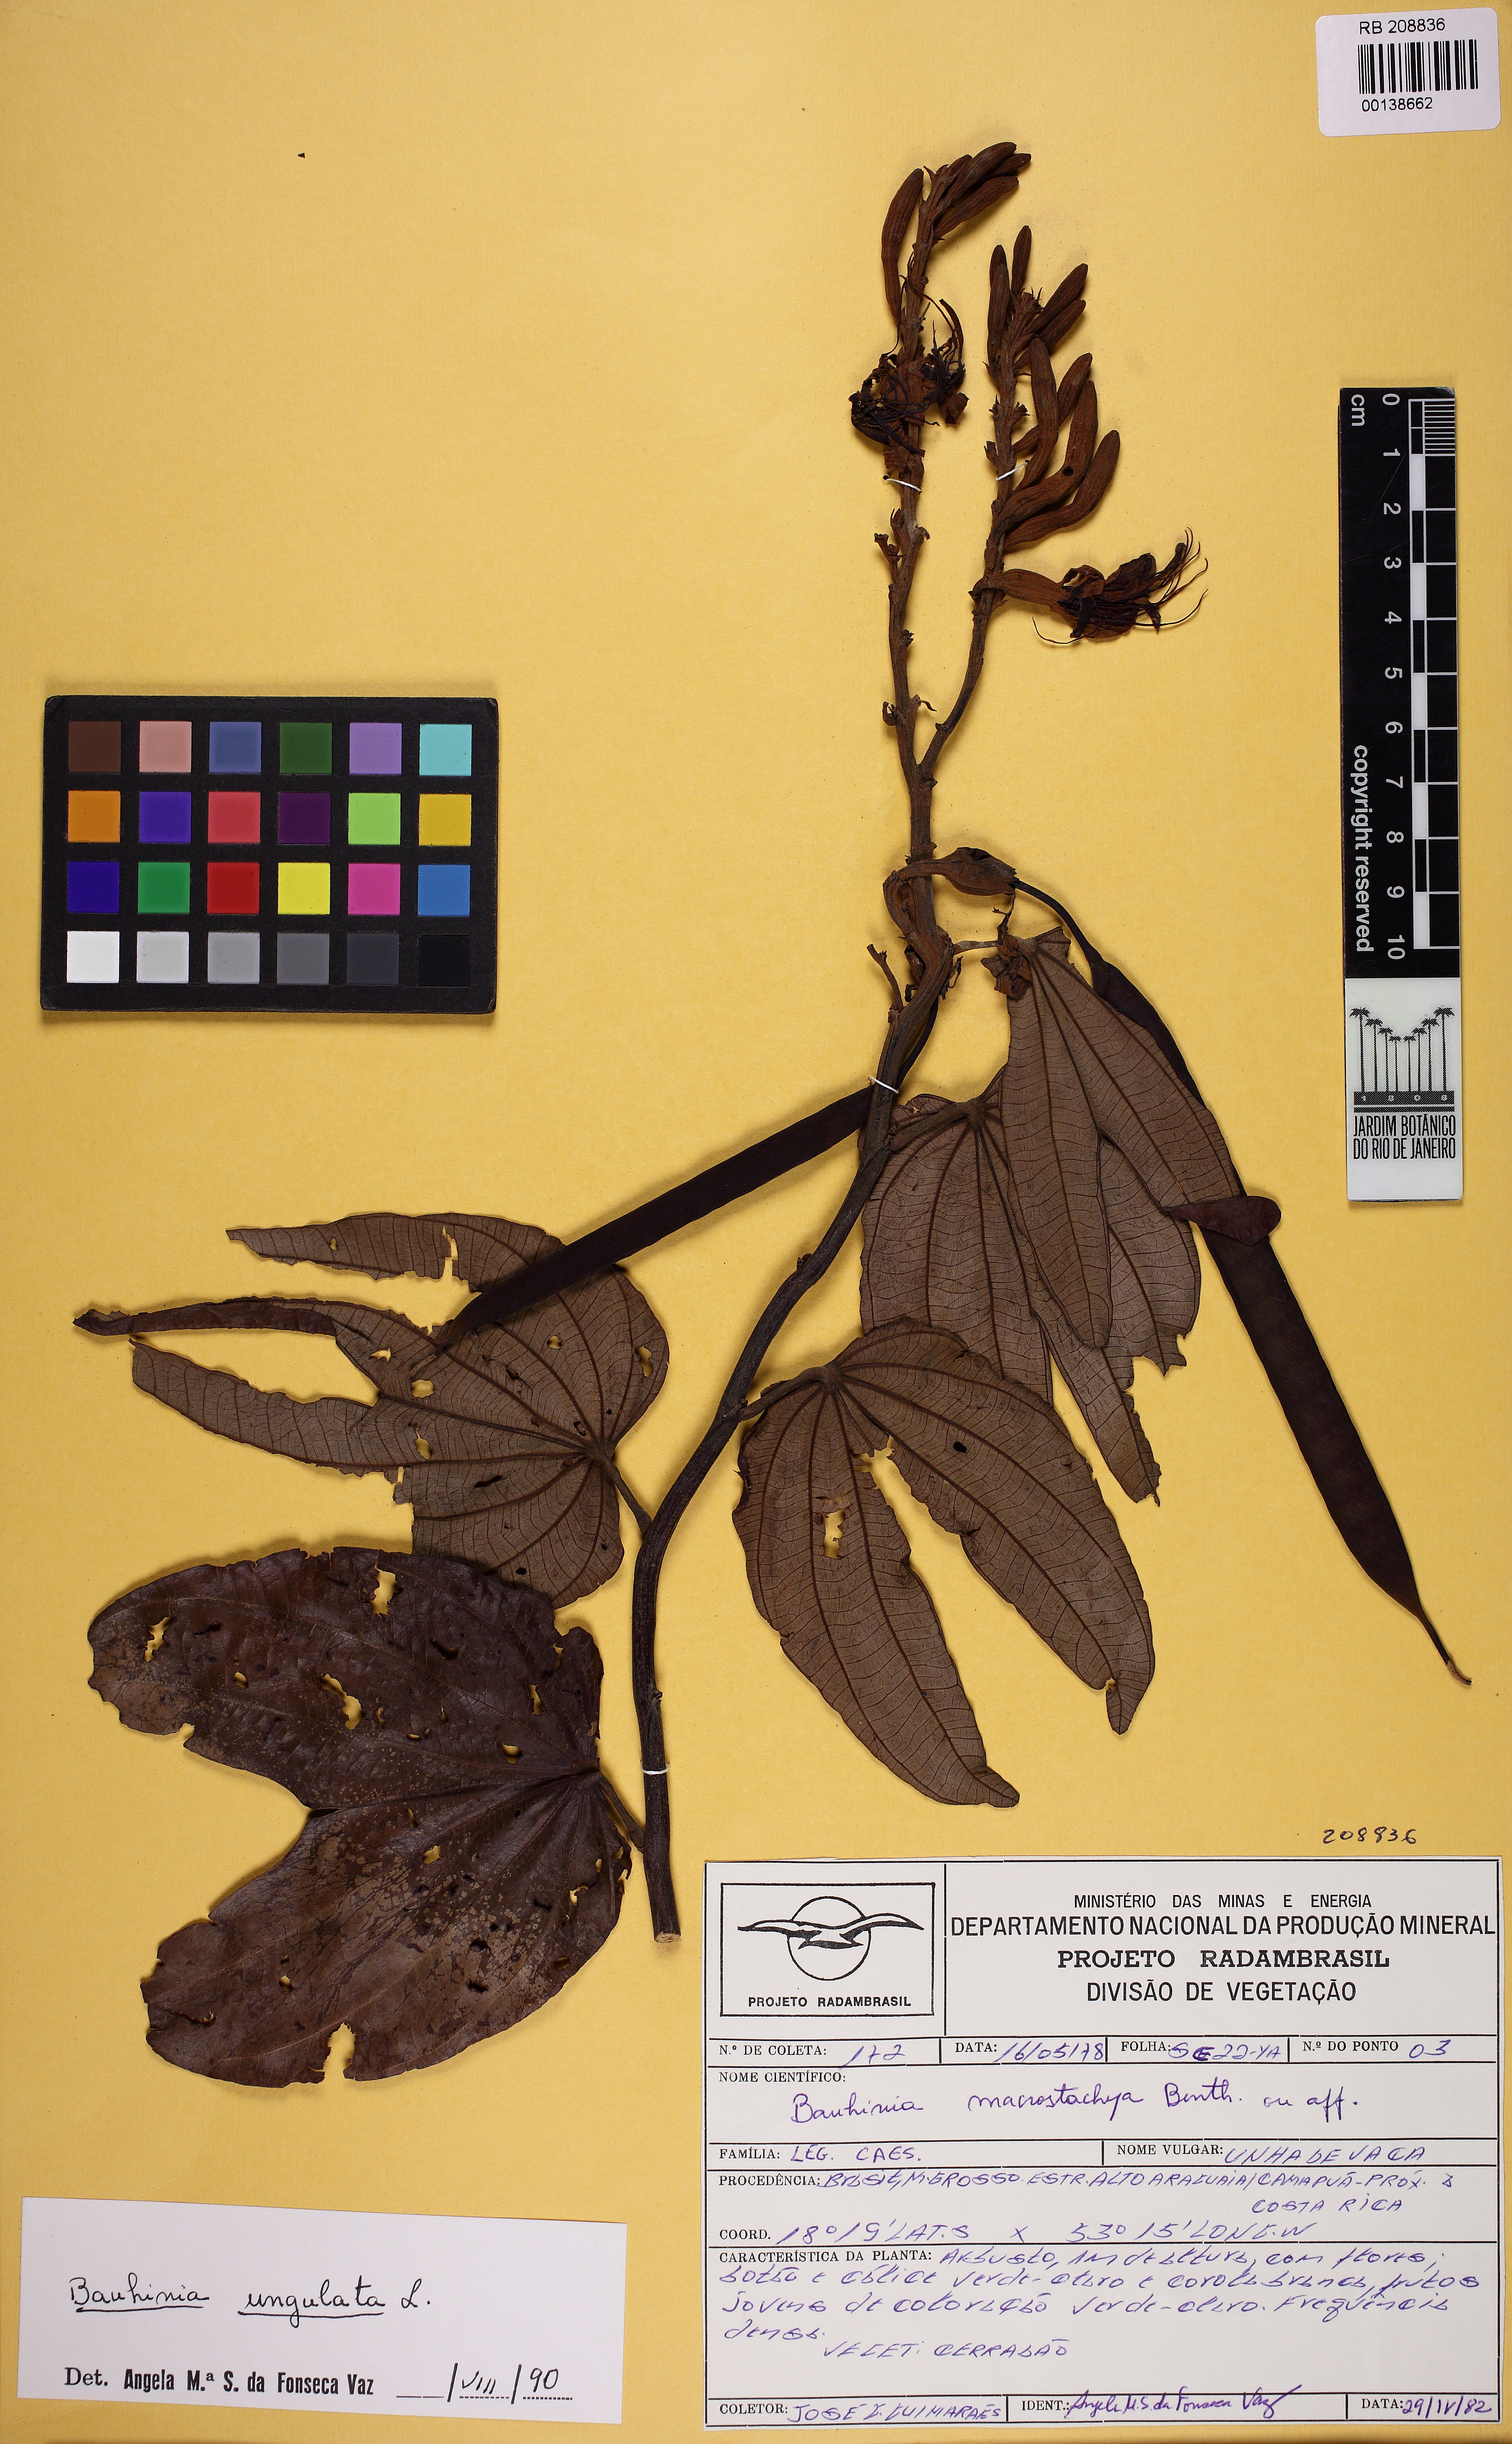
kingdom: Plantae
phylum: Tracheophyta
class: Magnoliopsida
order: Fabales
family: Fabaceae
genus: Bauhinia
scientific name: Bauhinia ungulata
